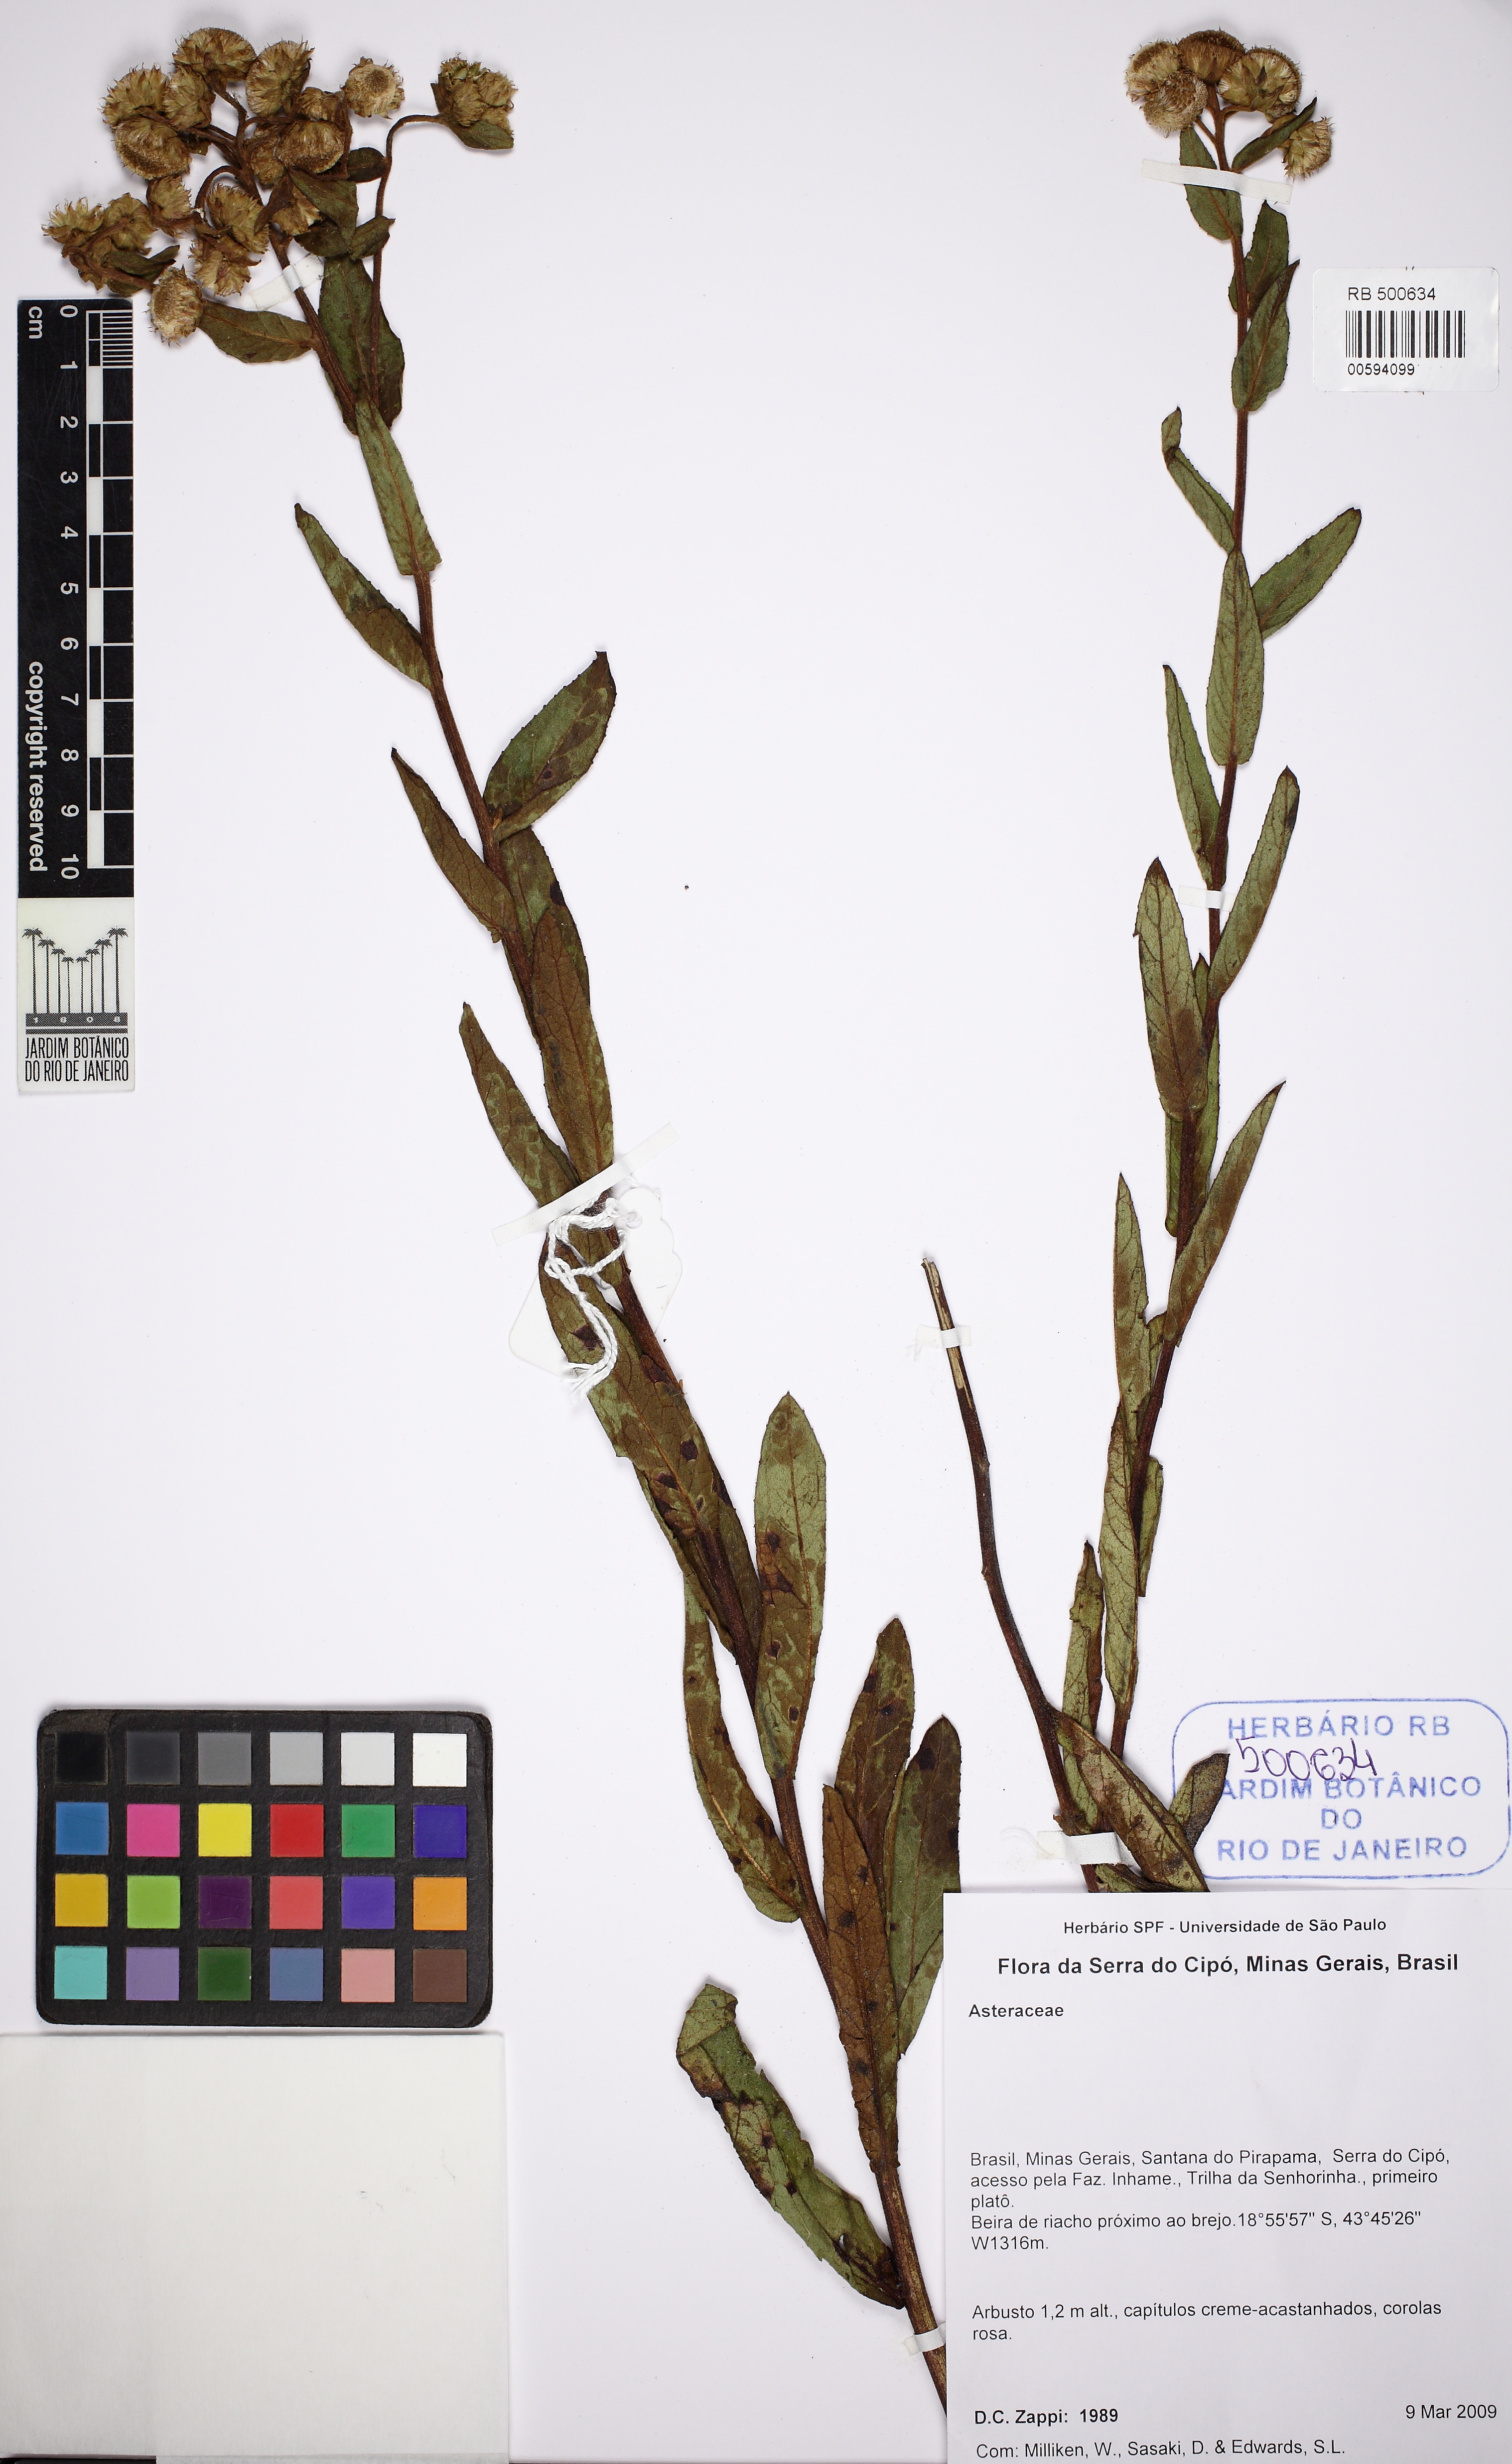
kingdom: Plantae
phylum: Tracheophyta
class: Magnoliopsida
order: Asterales
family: Asteraceae
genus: Pluchea
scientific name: Pluchea oblongifolia
